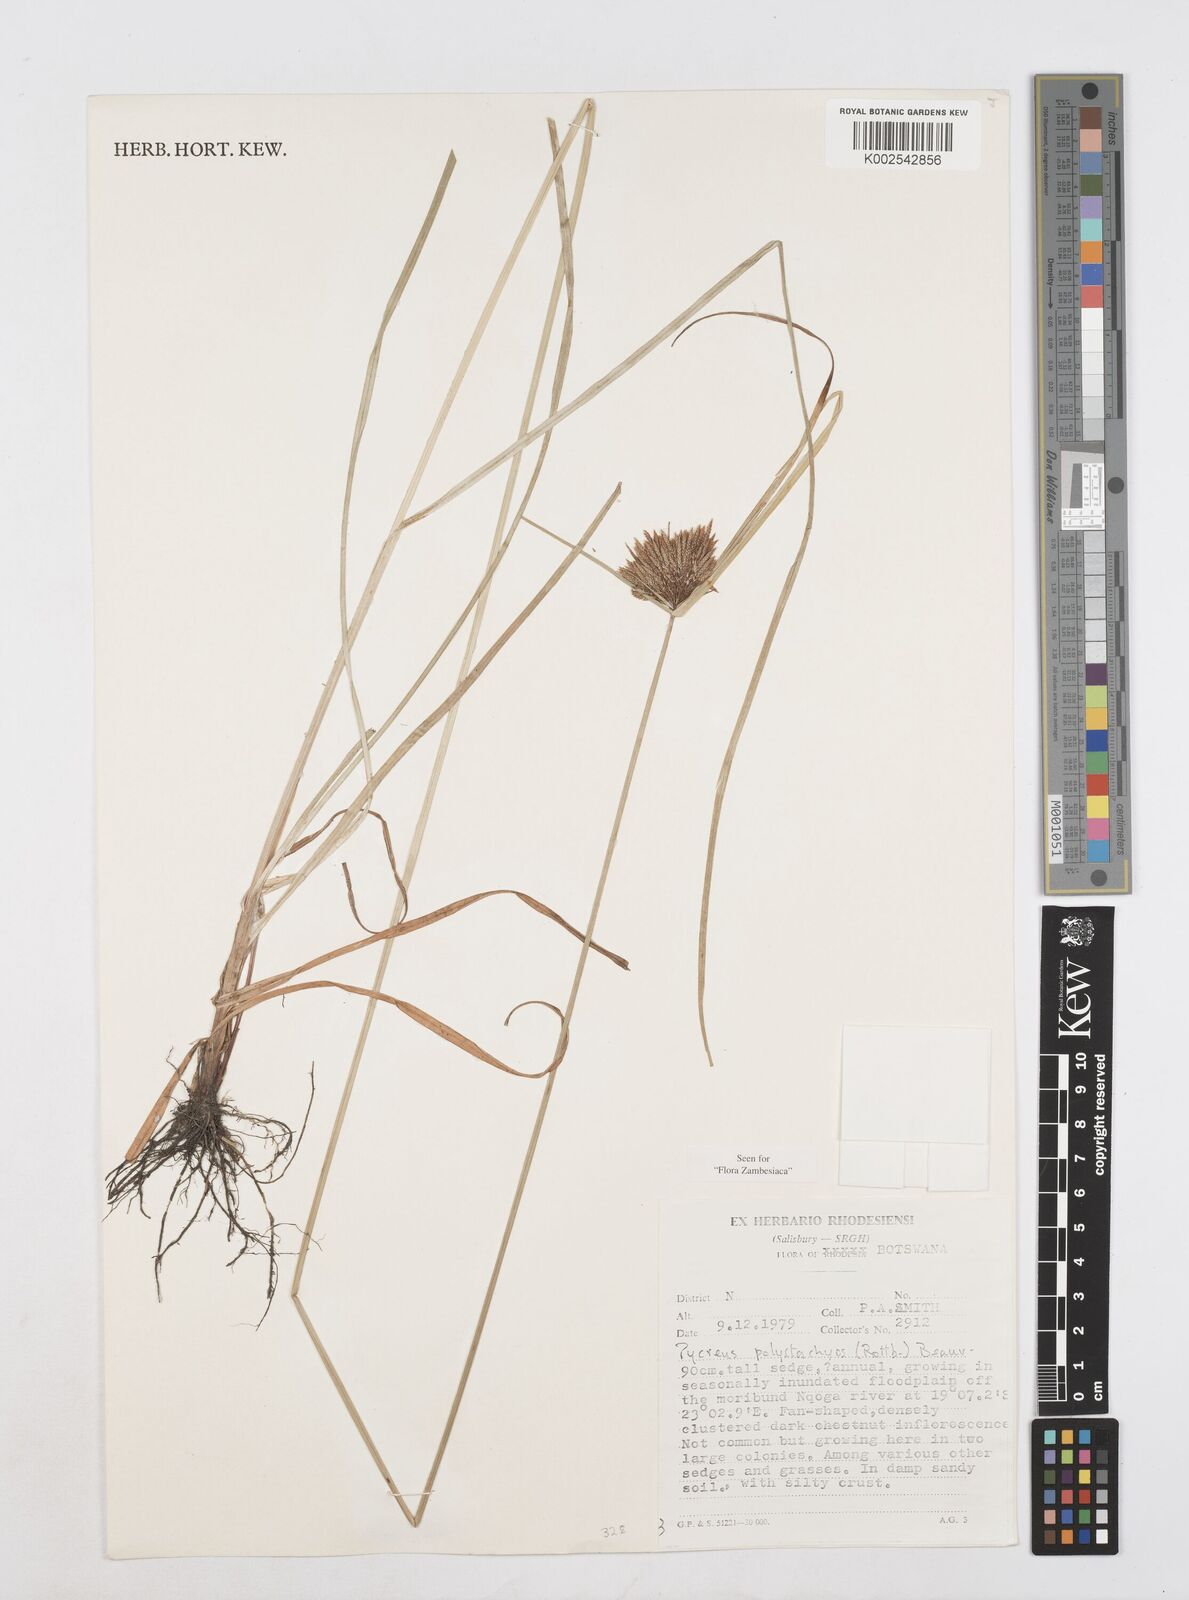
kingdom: Plantae
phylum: Tracheophyta
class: Liliopsida
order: Poales
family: Cyperaceae
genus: Cyperus
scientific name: Cyperus polystachyos
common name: Bunchy flat sedge
